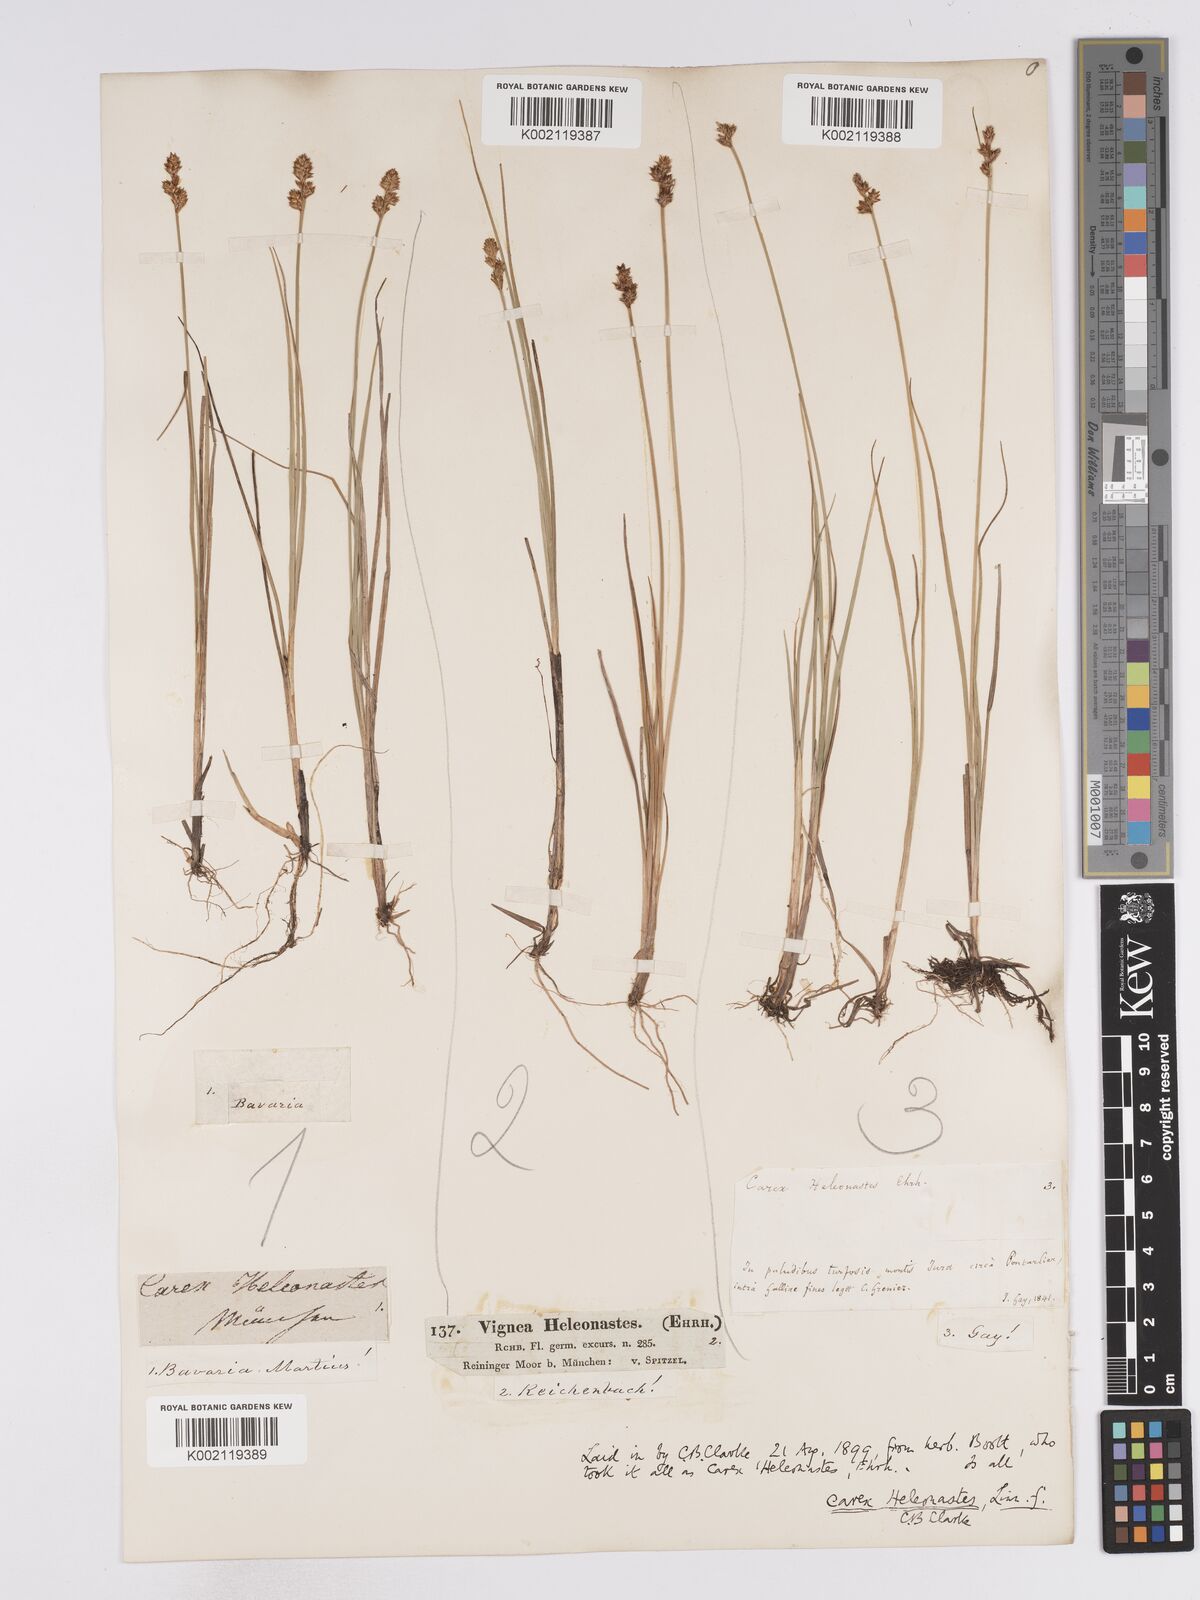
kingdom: Plantae
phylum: Tracheophyta
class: Liliopsida
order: Poales
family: Cyperaceae
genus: Carex
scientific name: Carex heleonastes
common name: Hudson bay sedge
